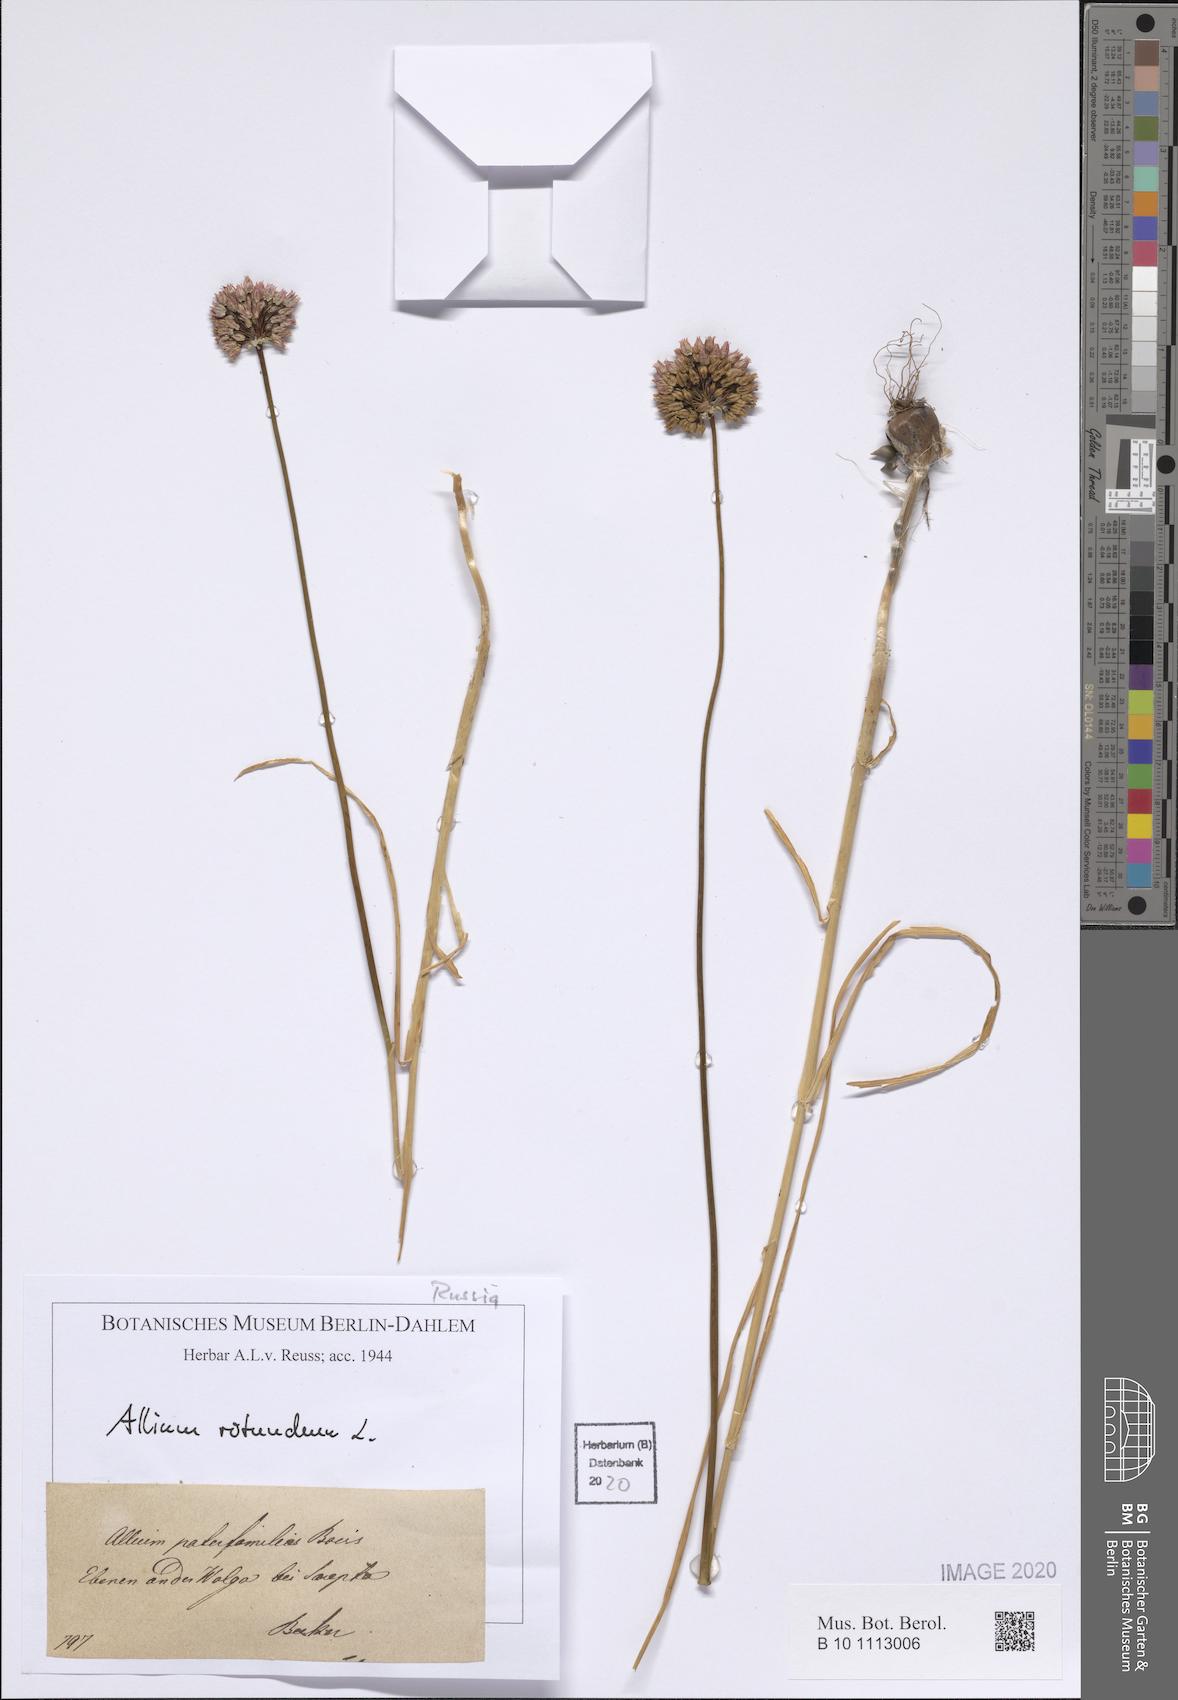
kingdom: Plantae
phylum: Tracheophyta
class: Liliopsida
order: Asparagales
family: Amaryllidaceae
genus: Allium
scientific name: Allium rotundum
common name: Sand leek
